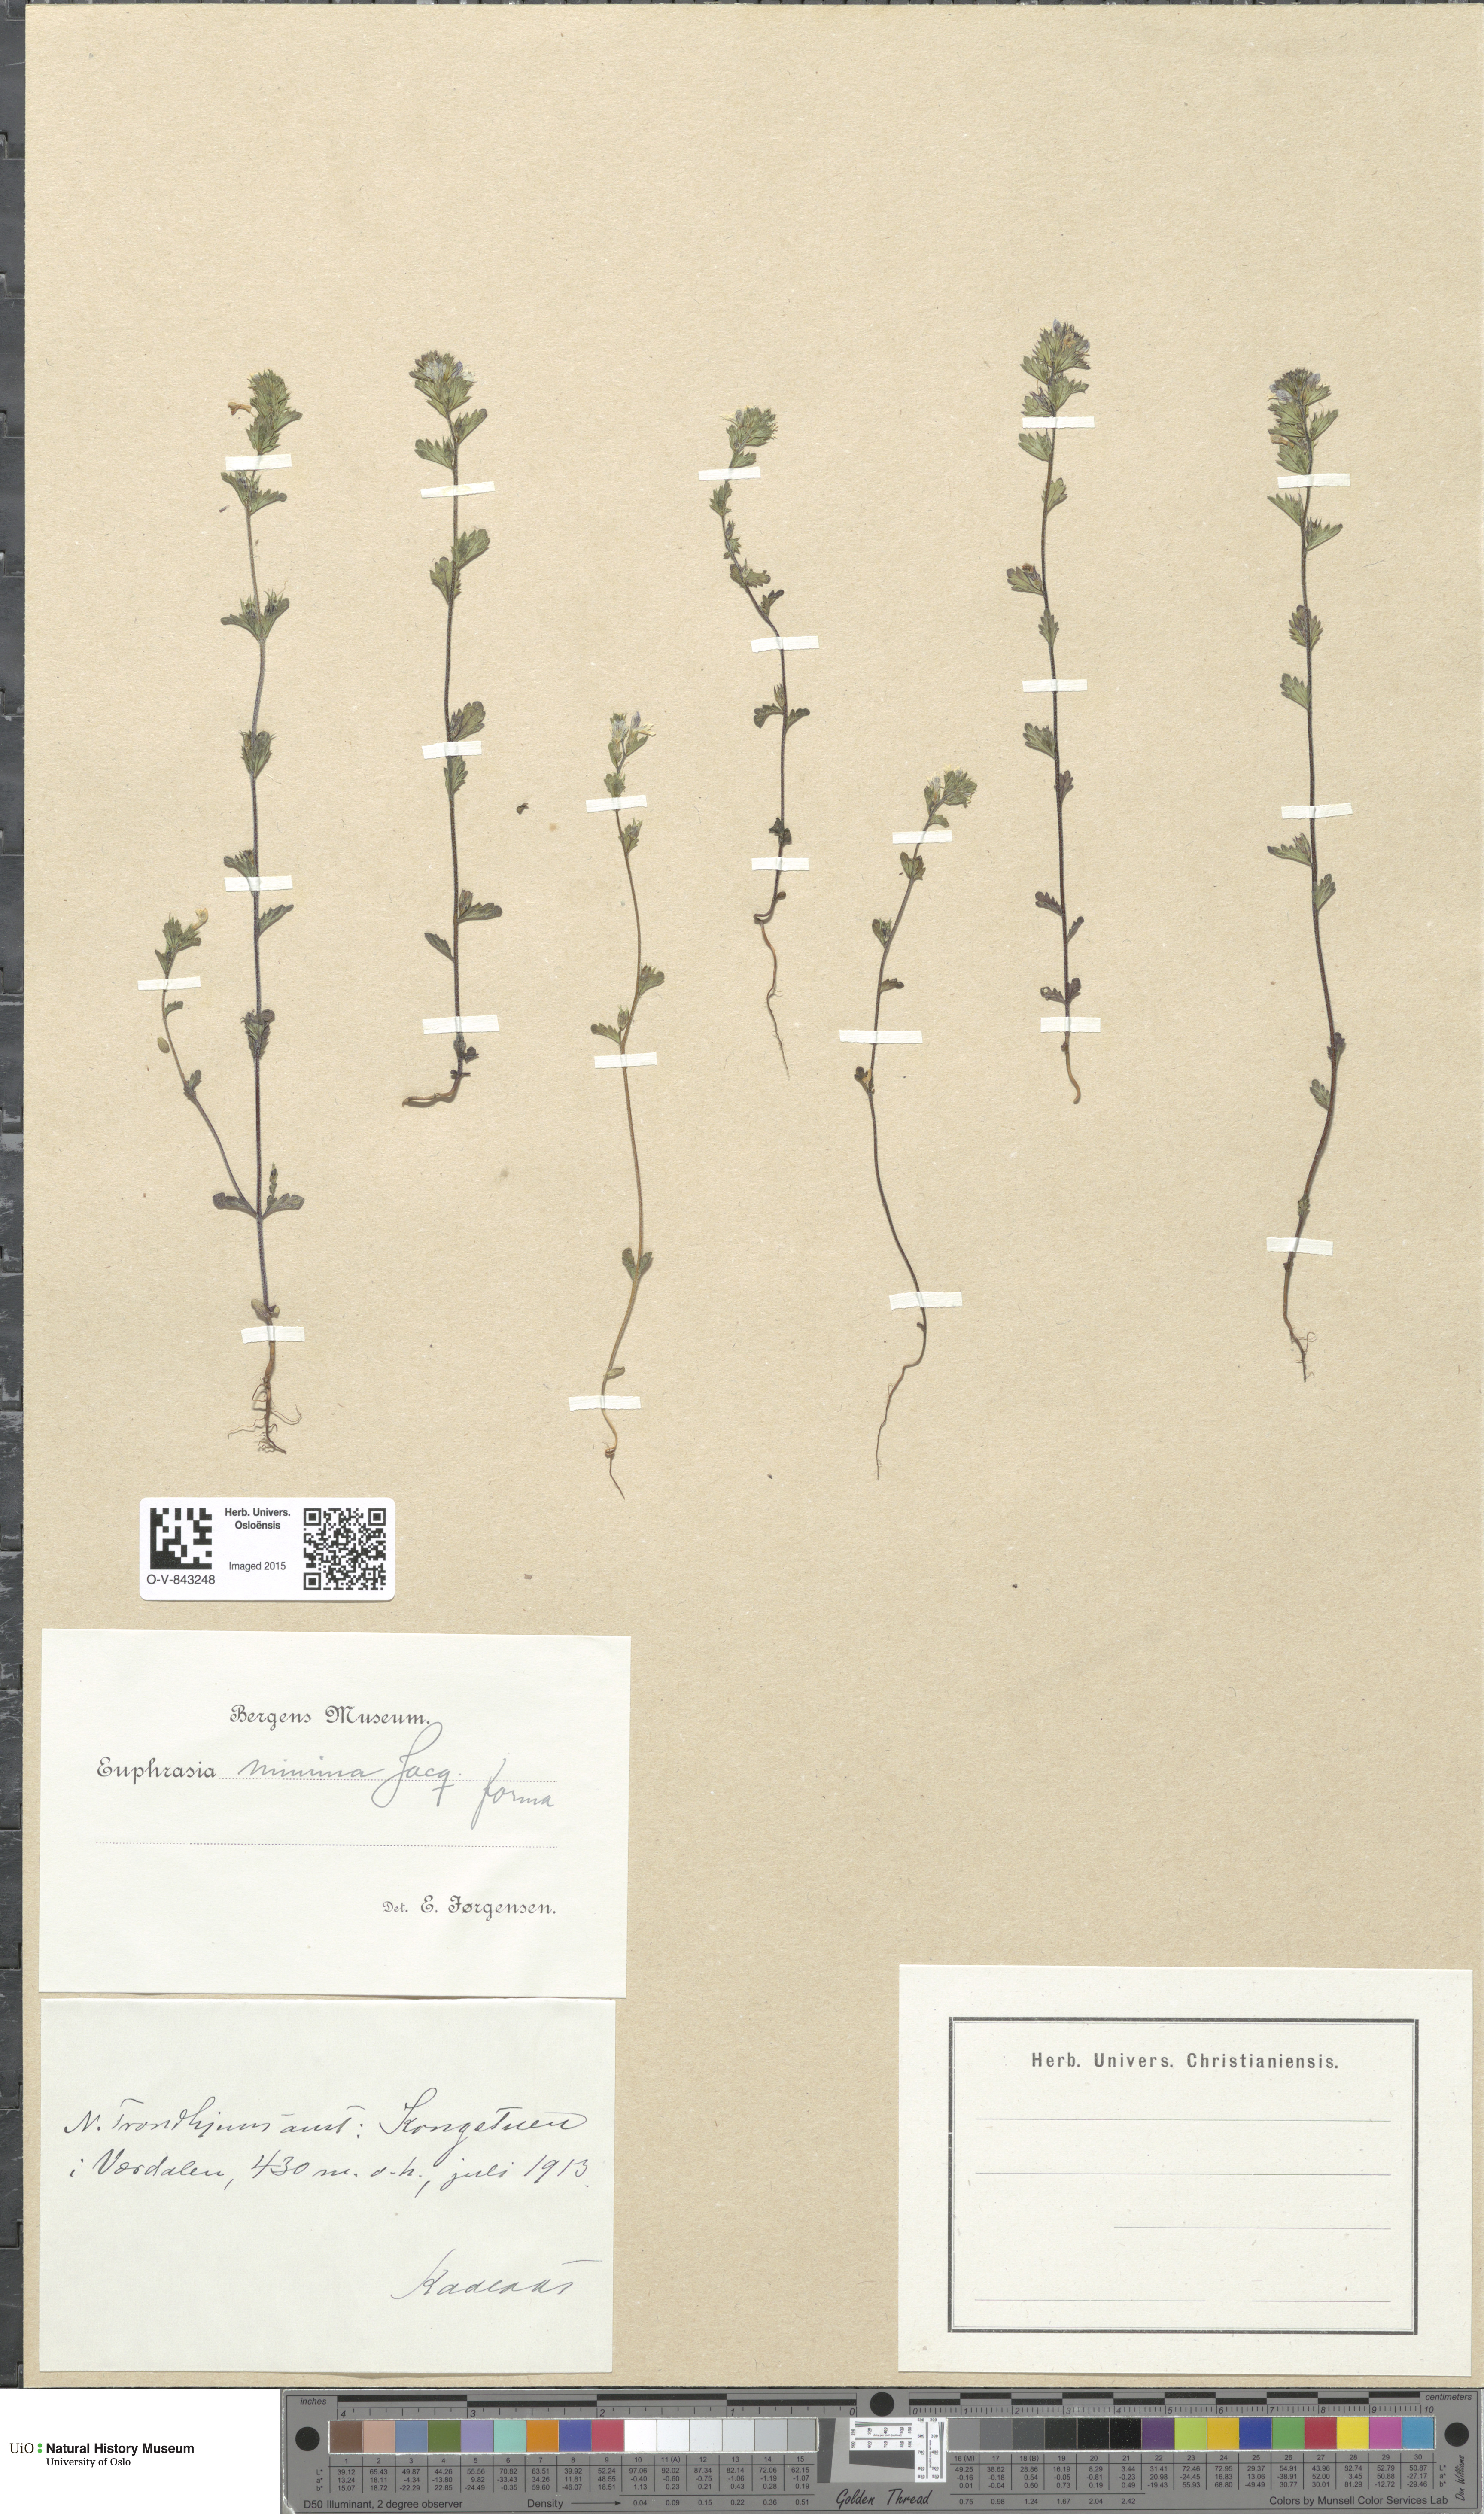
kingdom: Plantae
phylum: Tracheophyta
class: Magnoliopsida
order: Lamiales
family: Orobanchaceae
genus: Euphrasia
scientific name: Euphrasia wettsteinii
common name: Wettstein's eyebright
